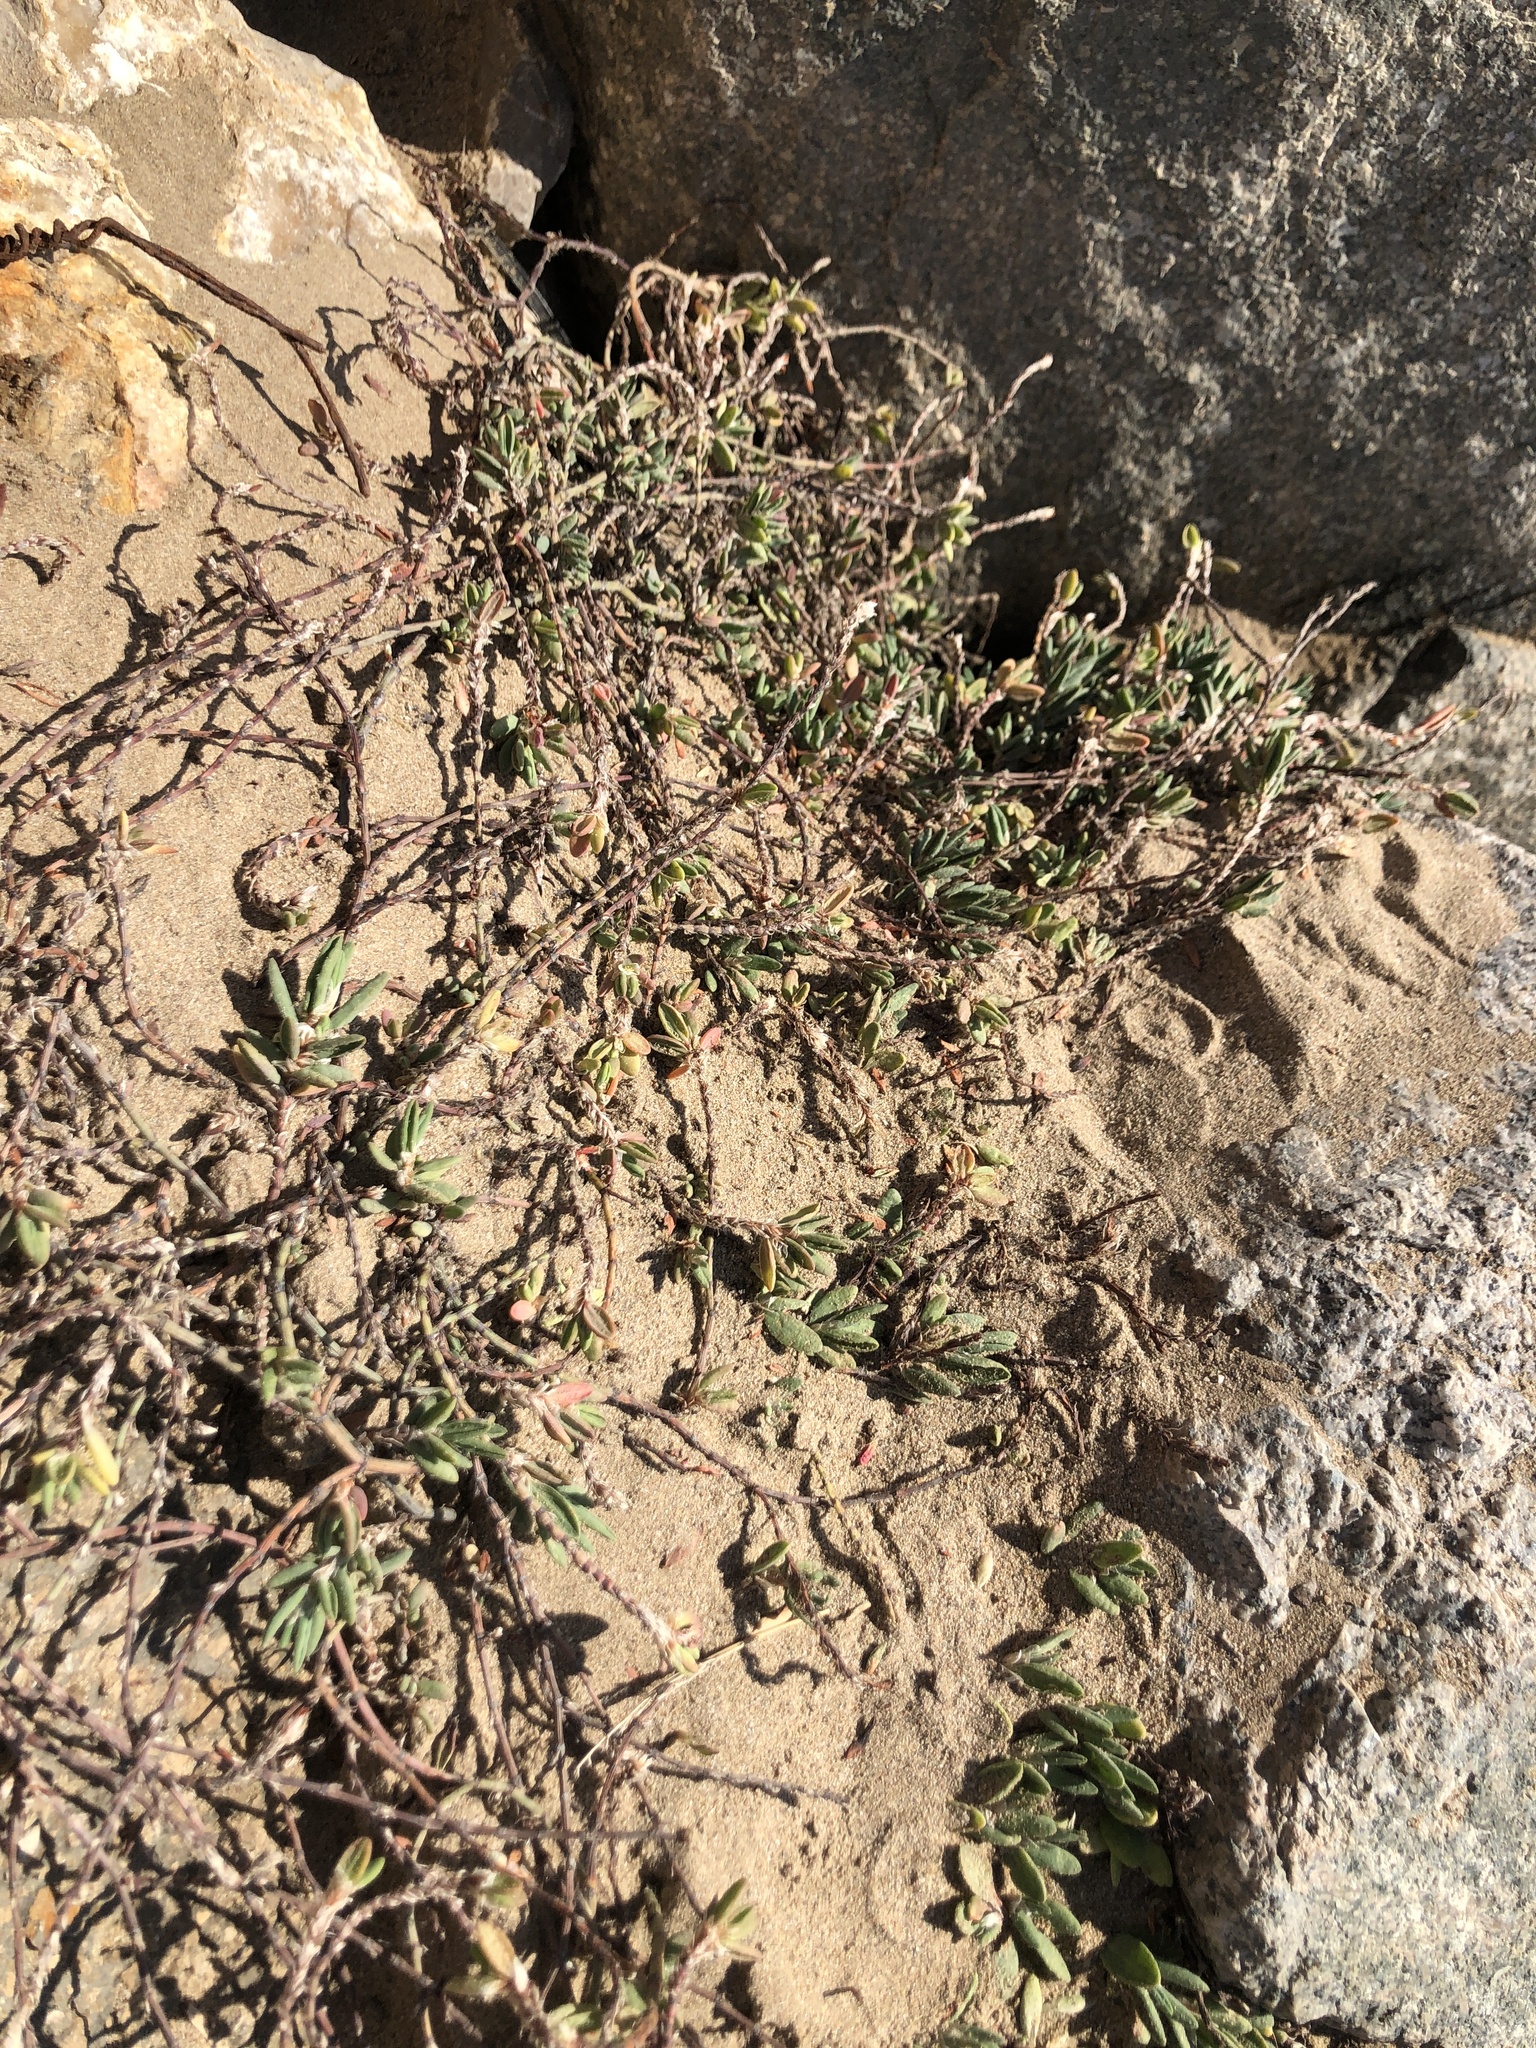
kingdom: Plantae
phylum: Tracheophyta
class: Magnoliopsida
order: Caryophyllales
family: Polygonaceae
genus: Polygonum
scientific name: Polygonum maritimum
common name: Sea knotgrass
